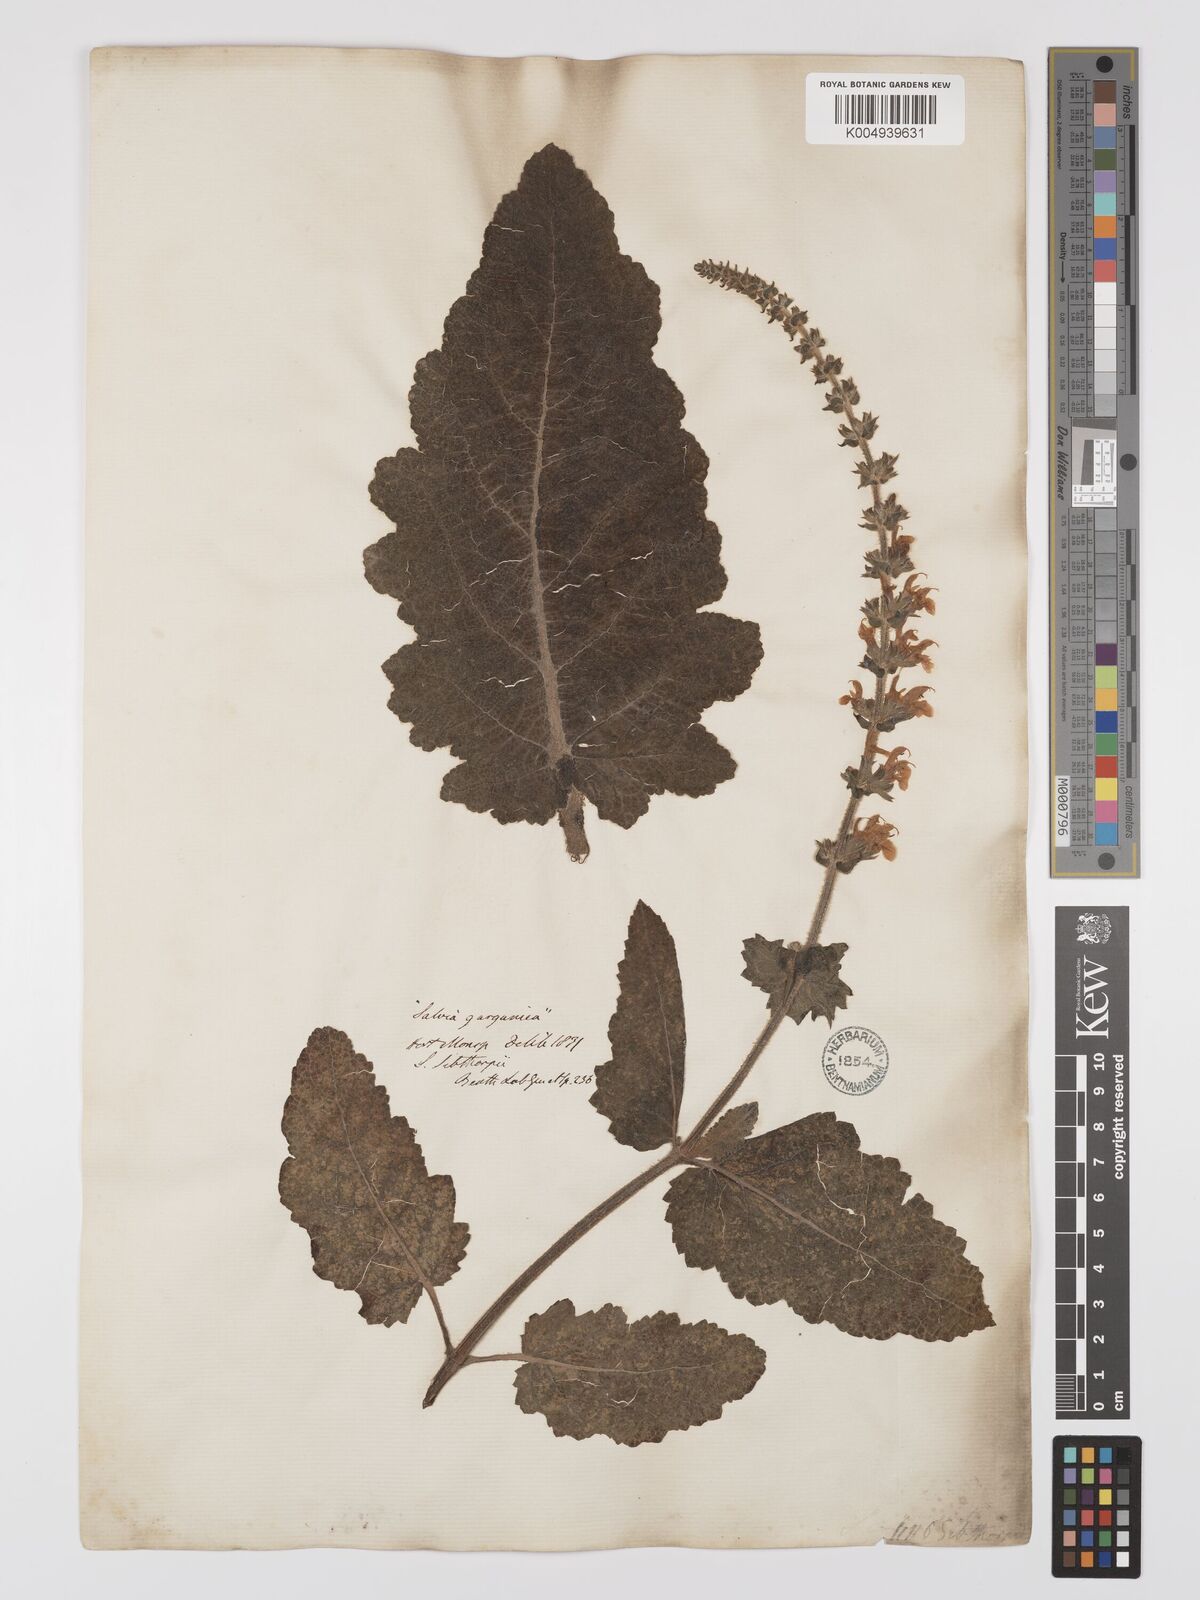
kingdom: Plantae
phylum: Tracheophyta
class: Magnoliopsida
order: Lamiales
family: Lamiaceae
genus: Salvia
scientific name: Salvia
